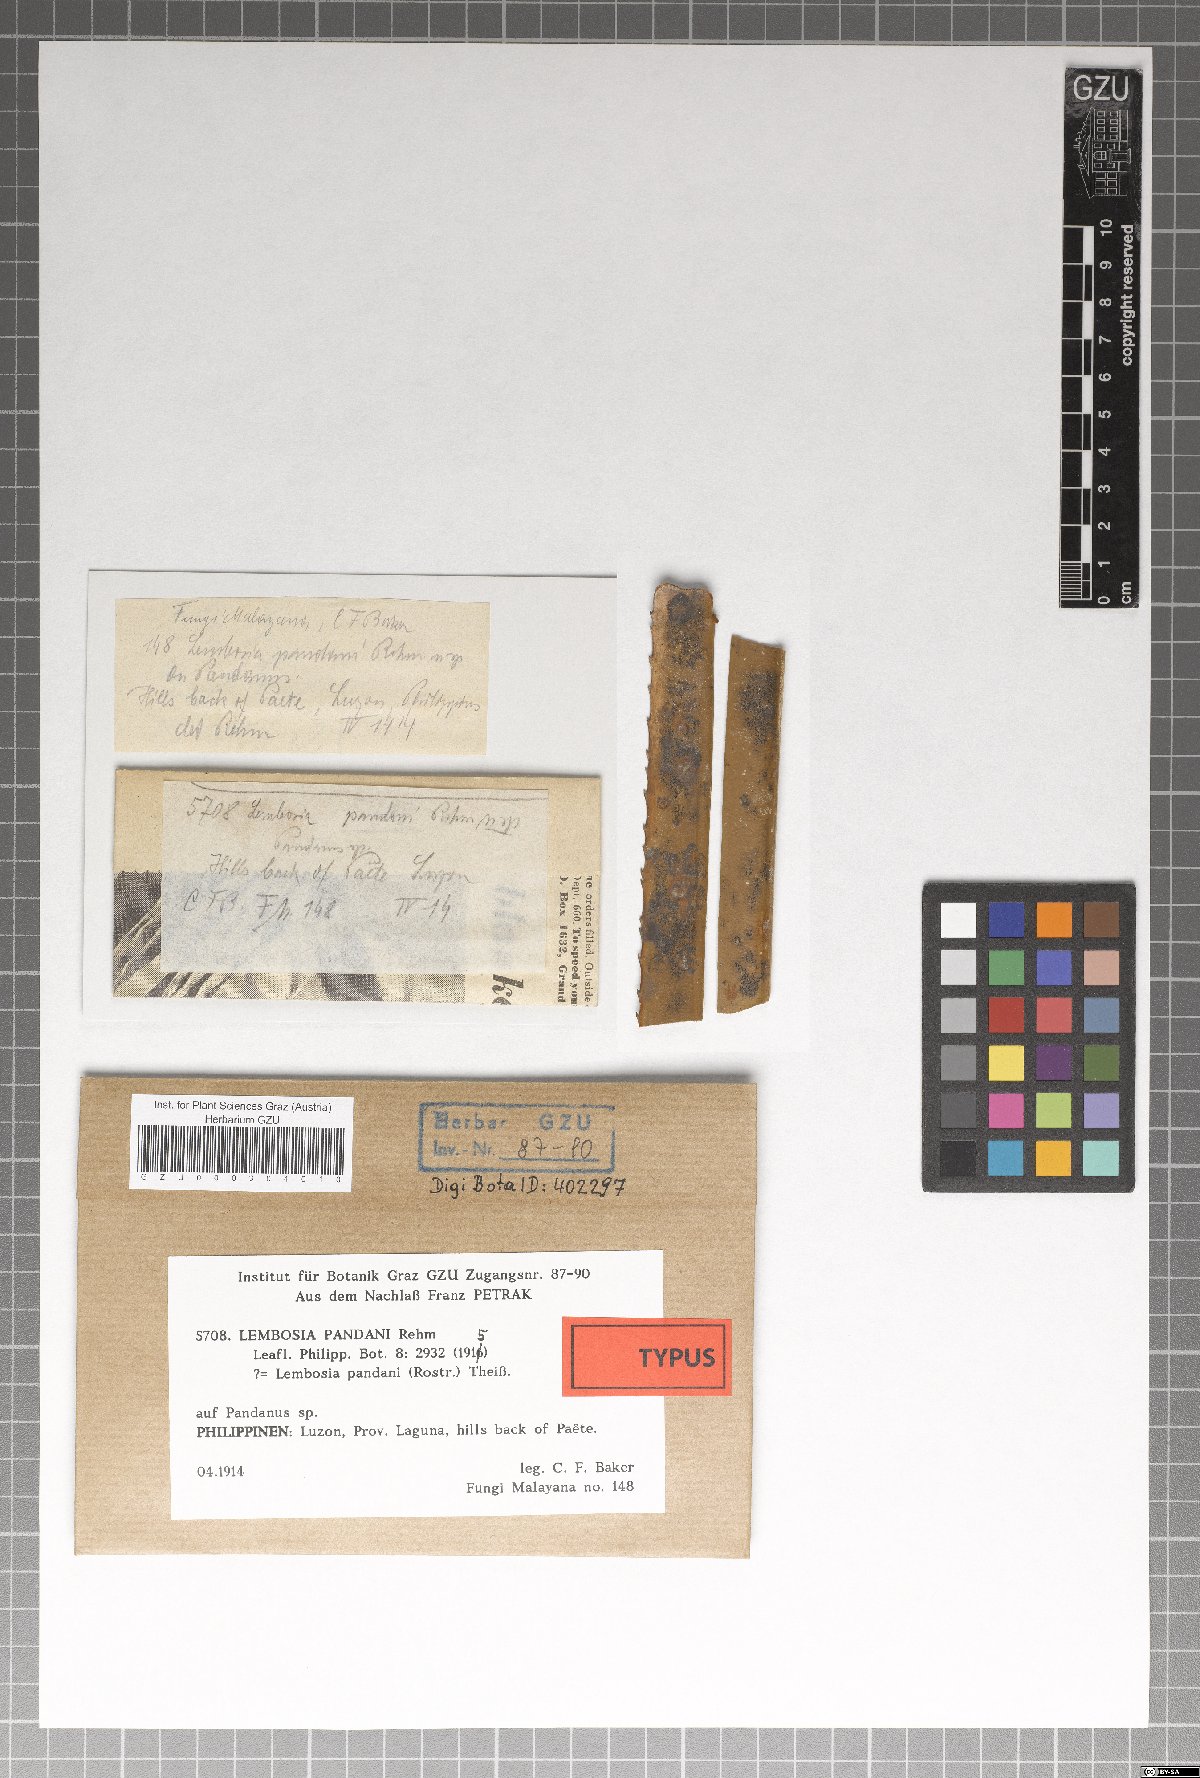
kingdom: Fungi
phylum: Ascomycota
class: Dothideomycetes
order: Asterinales
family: Asterinaceae
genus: Lembosia
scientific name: Lembosia pandani
